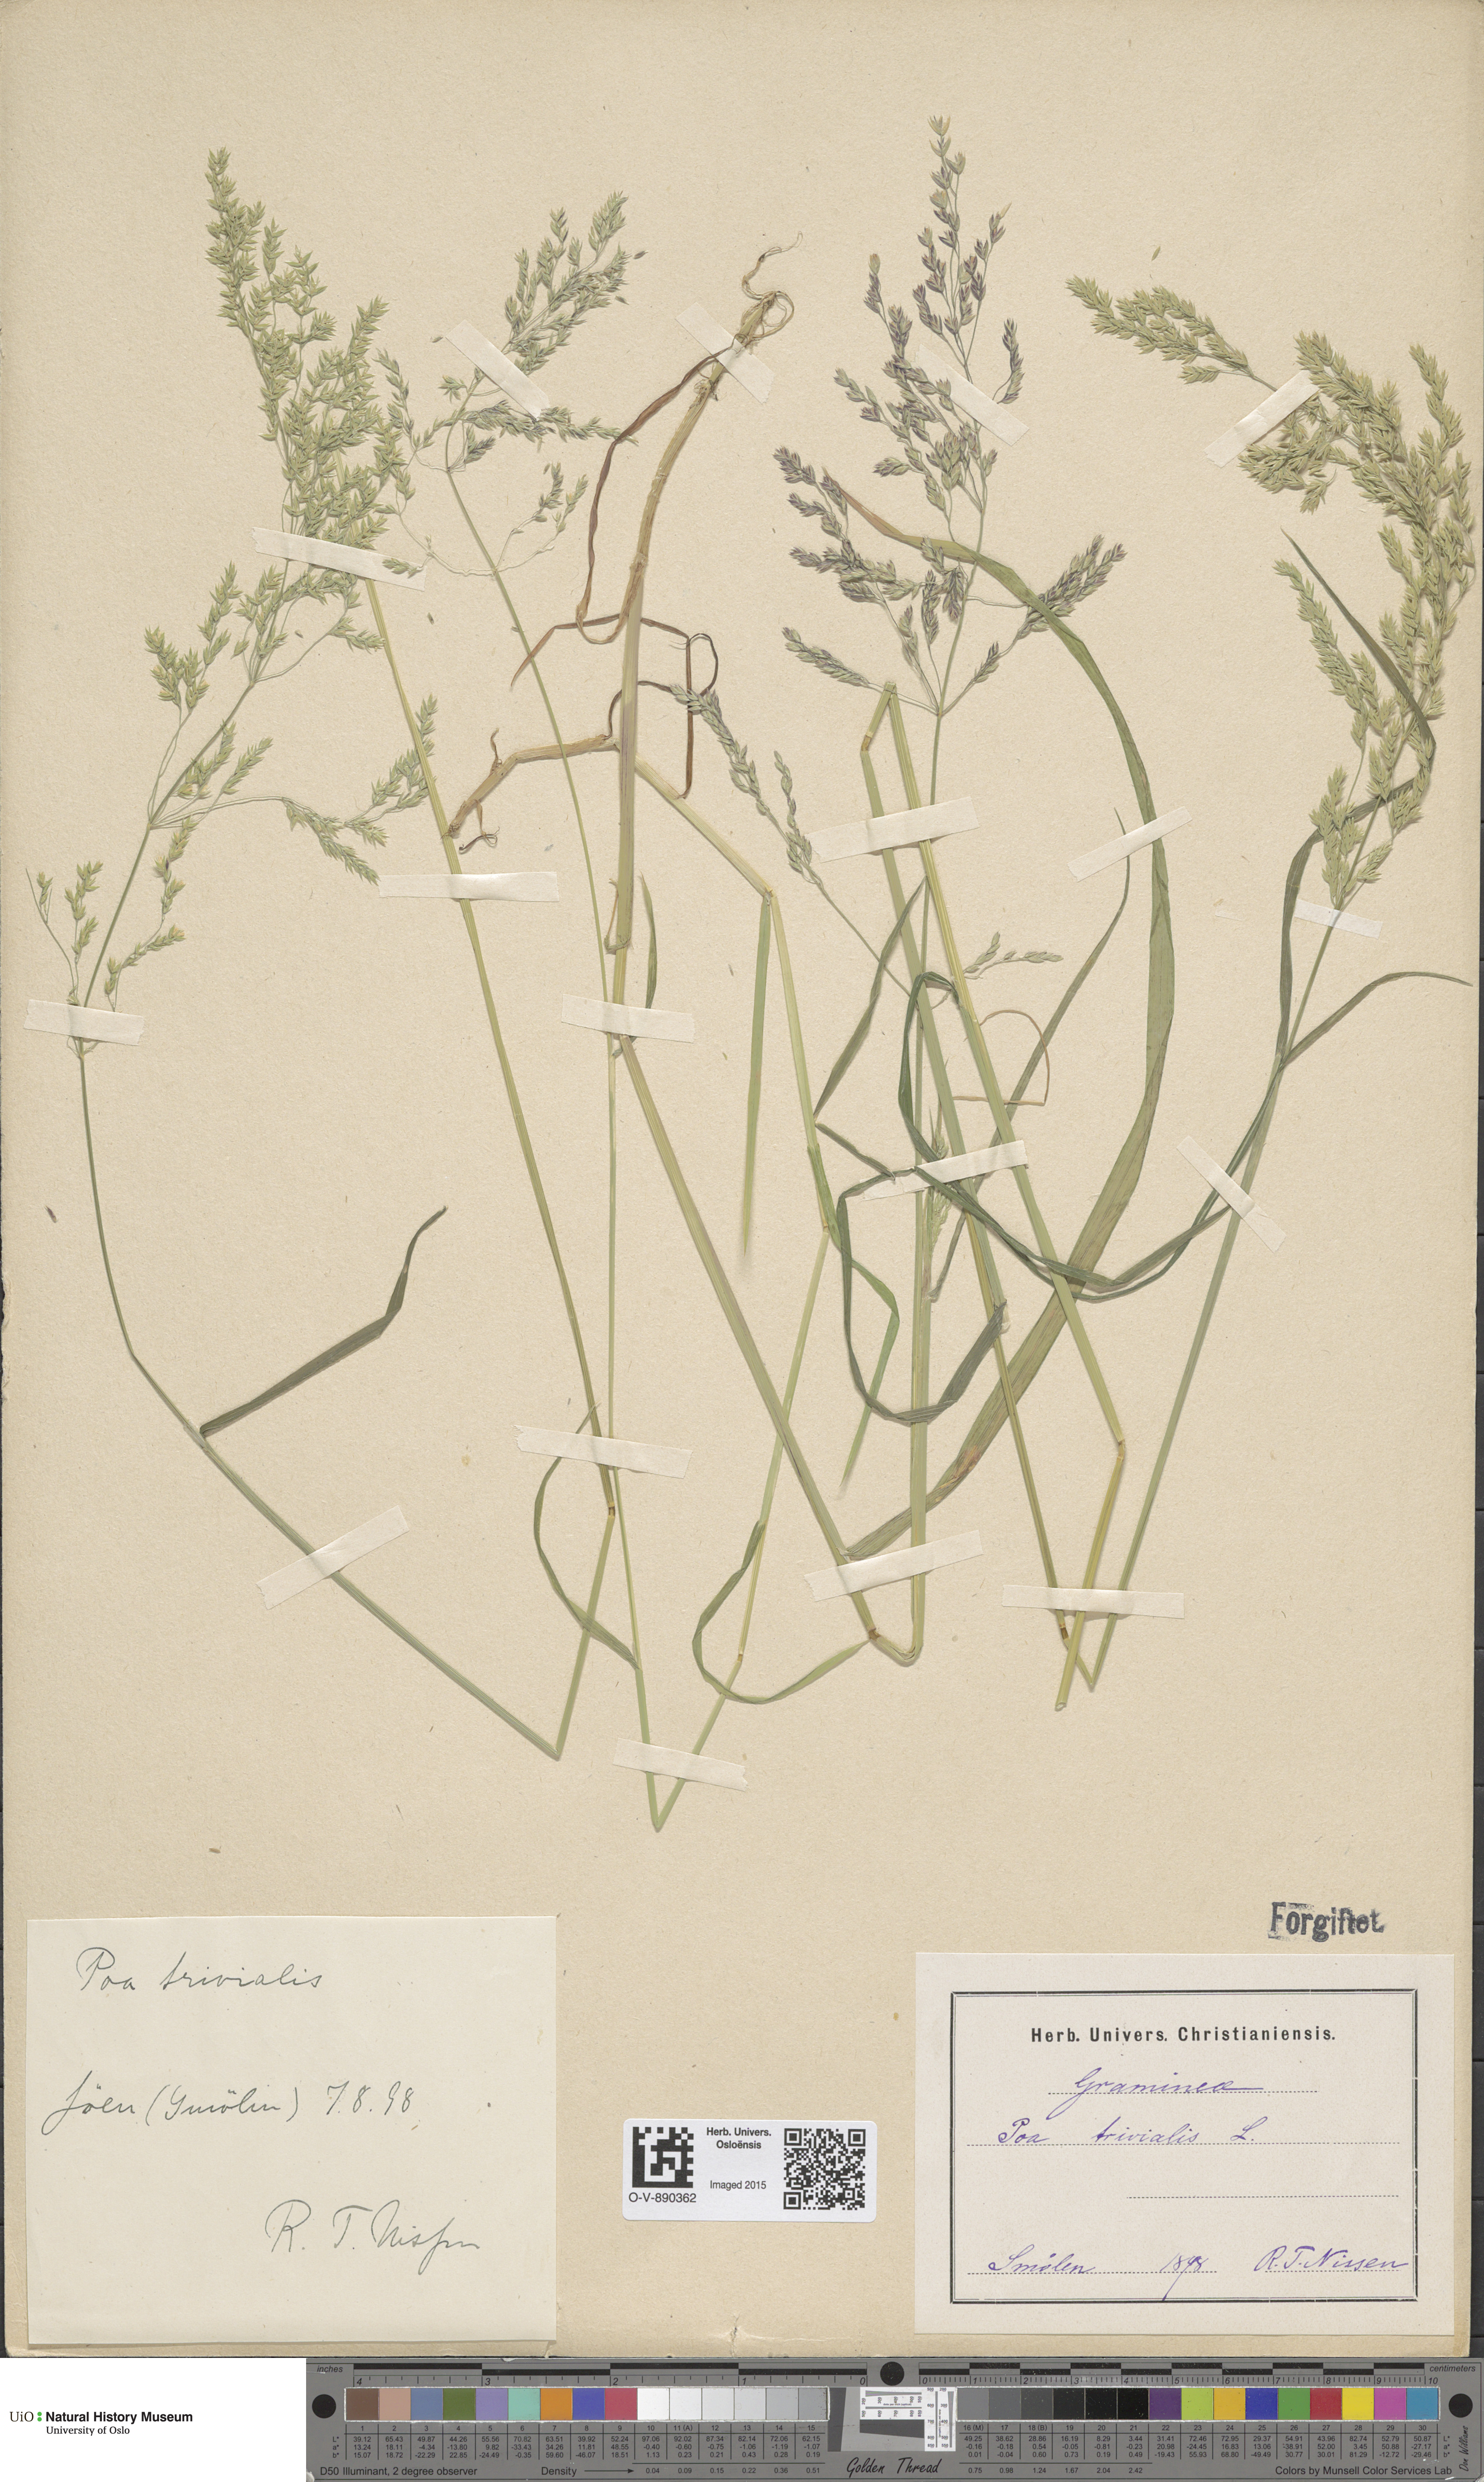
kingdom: Plantae
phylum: Tracheophyta
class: Liliopsida
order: Poales
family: Poaceae
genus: Poa
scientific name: Poa trivialis
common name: Rough bluegrass
